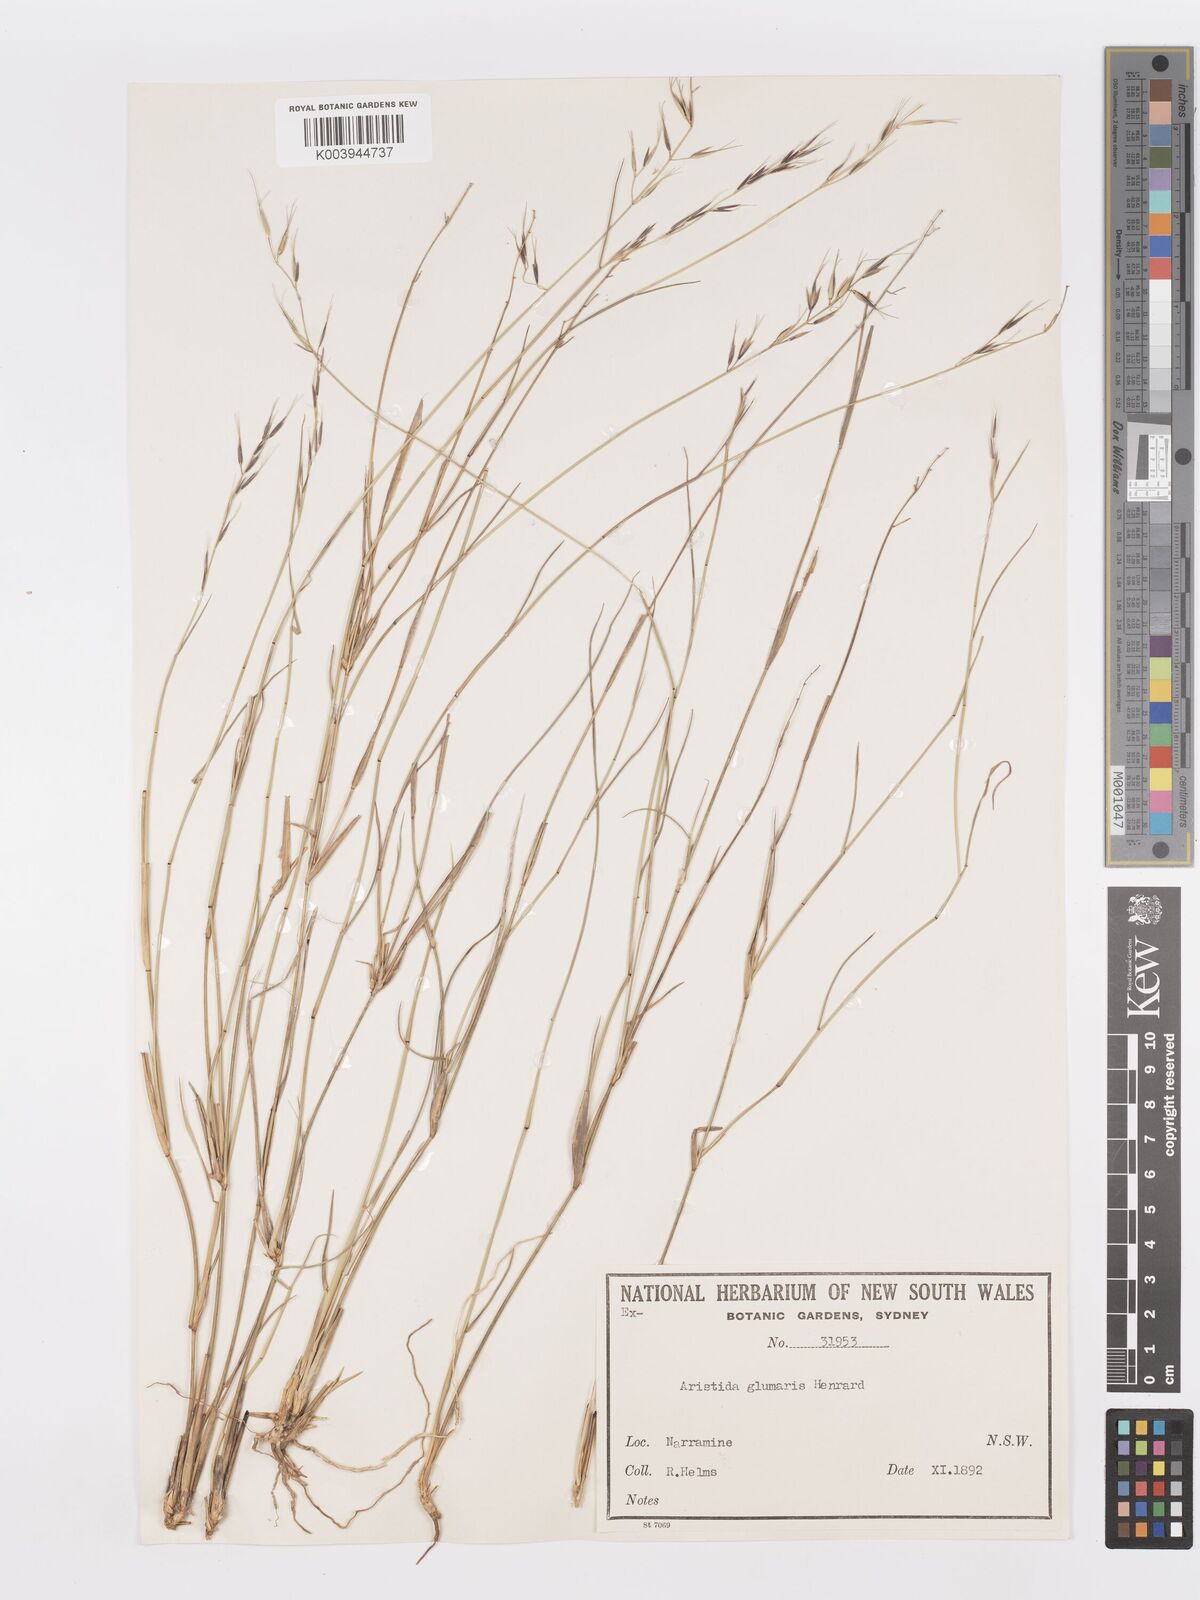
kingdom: Plantae
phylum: Tracheophyta
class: Liliopsida
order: Poales
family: Poaceae
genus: Aristida
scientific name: Aristida calycina
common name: Dark wire grass
